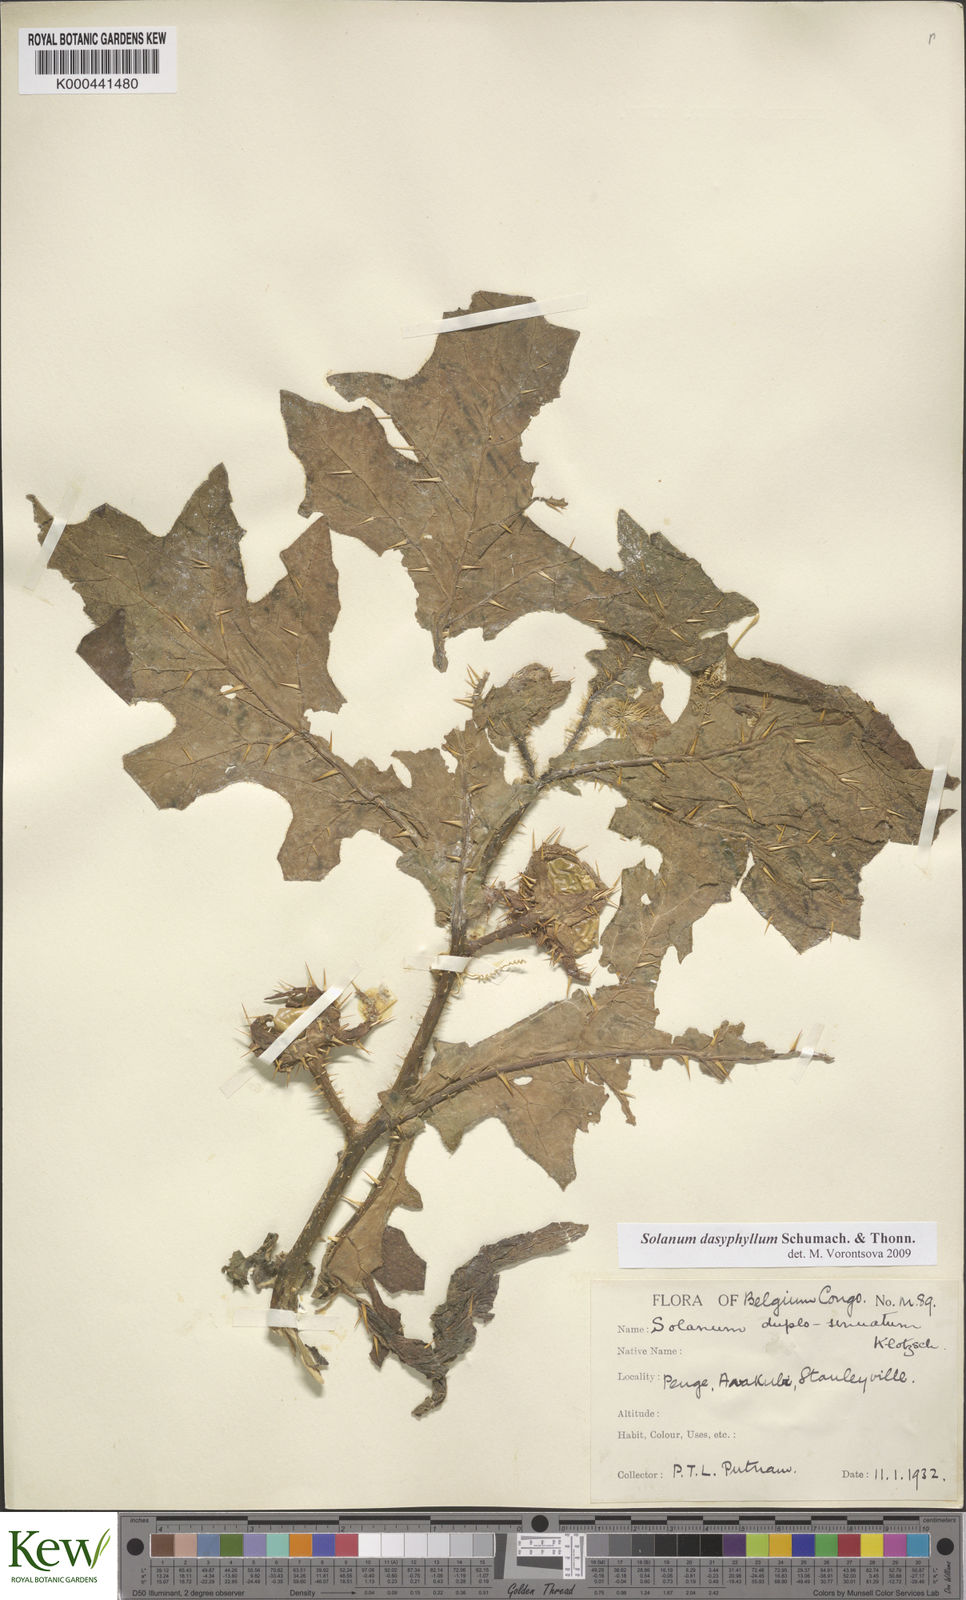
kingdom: Plantae
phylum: Tracheophyta
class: Magnoliopsida
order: Solanales
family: Solanaceae
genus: Solanum
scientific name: Solanum dasyphyllum
